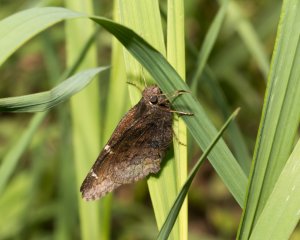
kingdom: Animalia
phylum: Arthropoda
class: Insecta
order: Lepidoptera
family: Hesperiidae
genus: Autochton
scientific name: Autochton
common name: Northern Cloudywing
